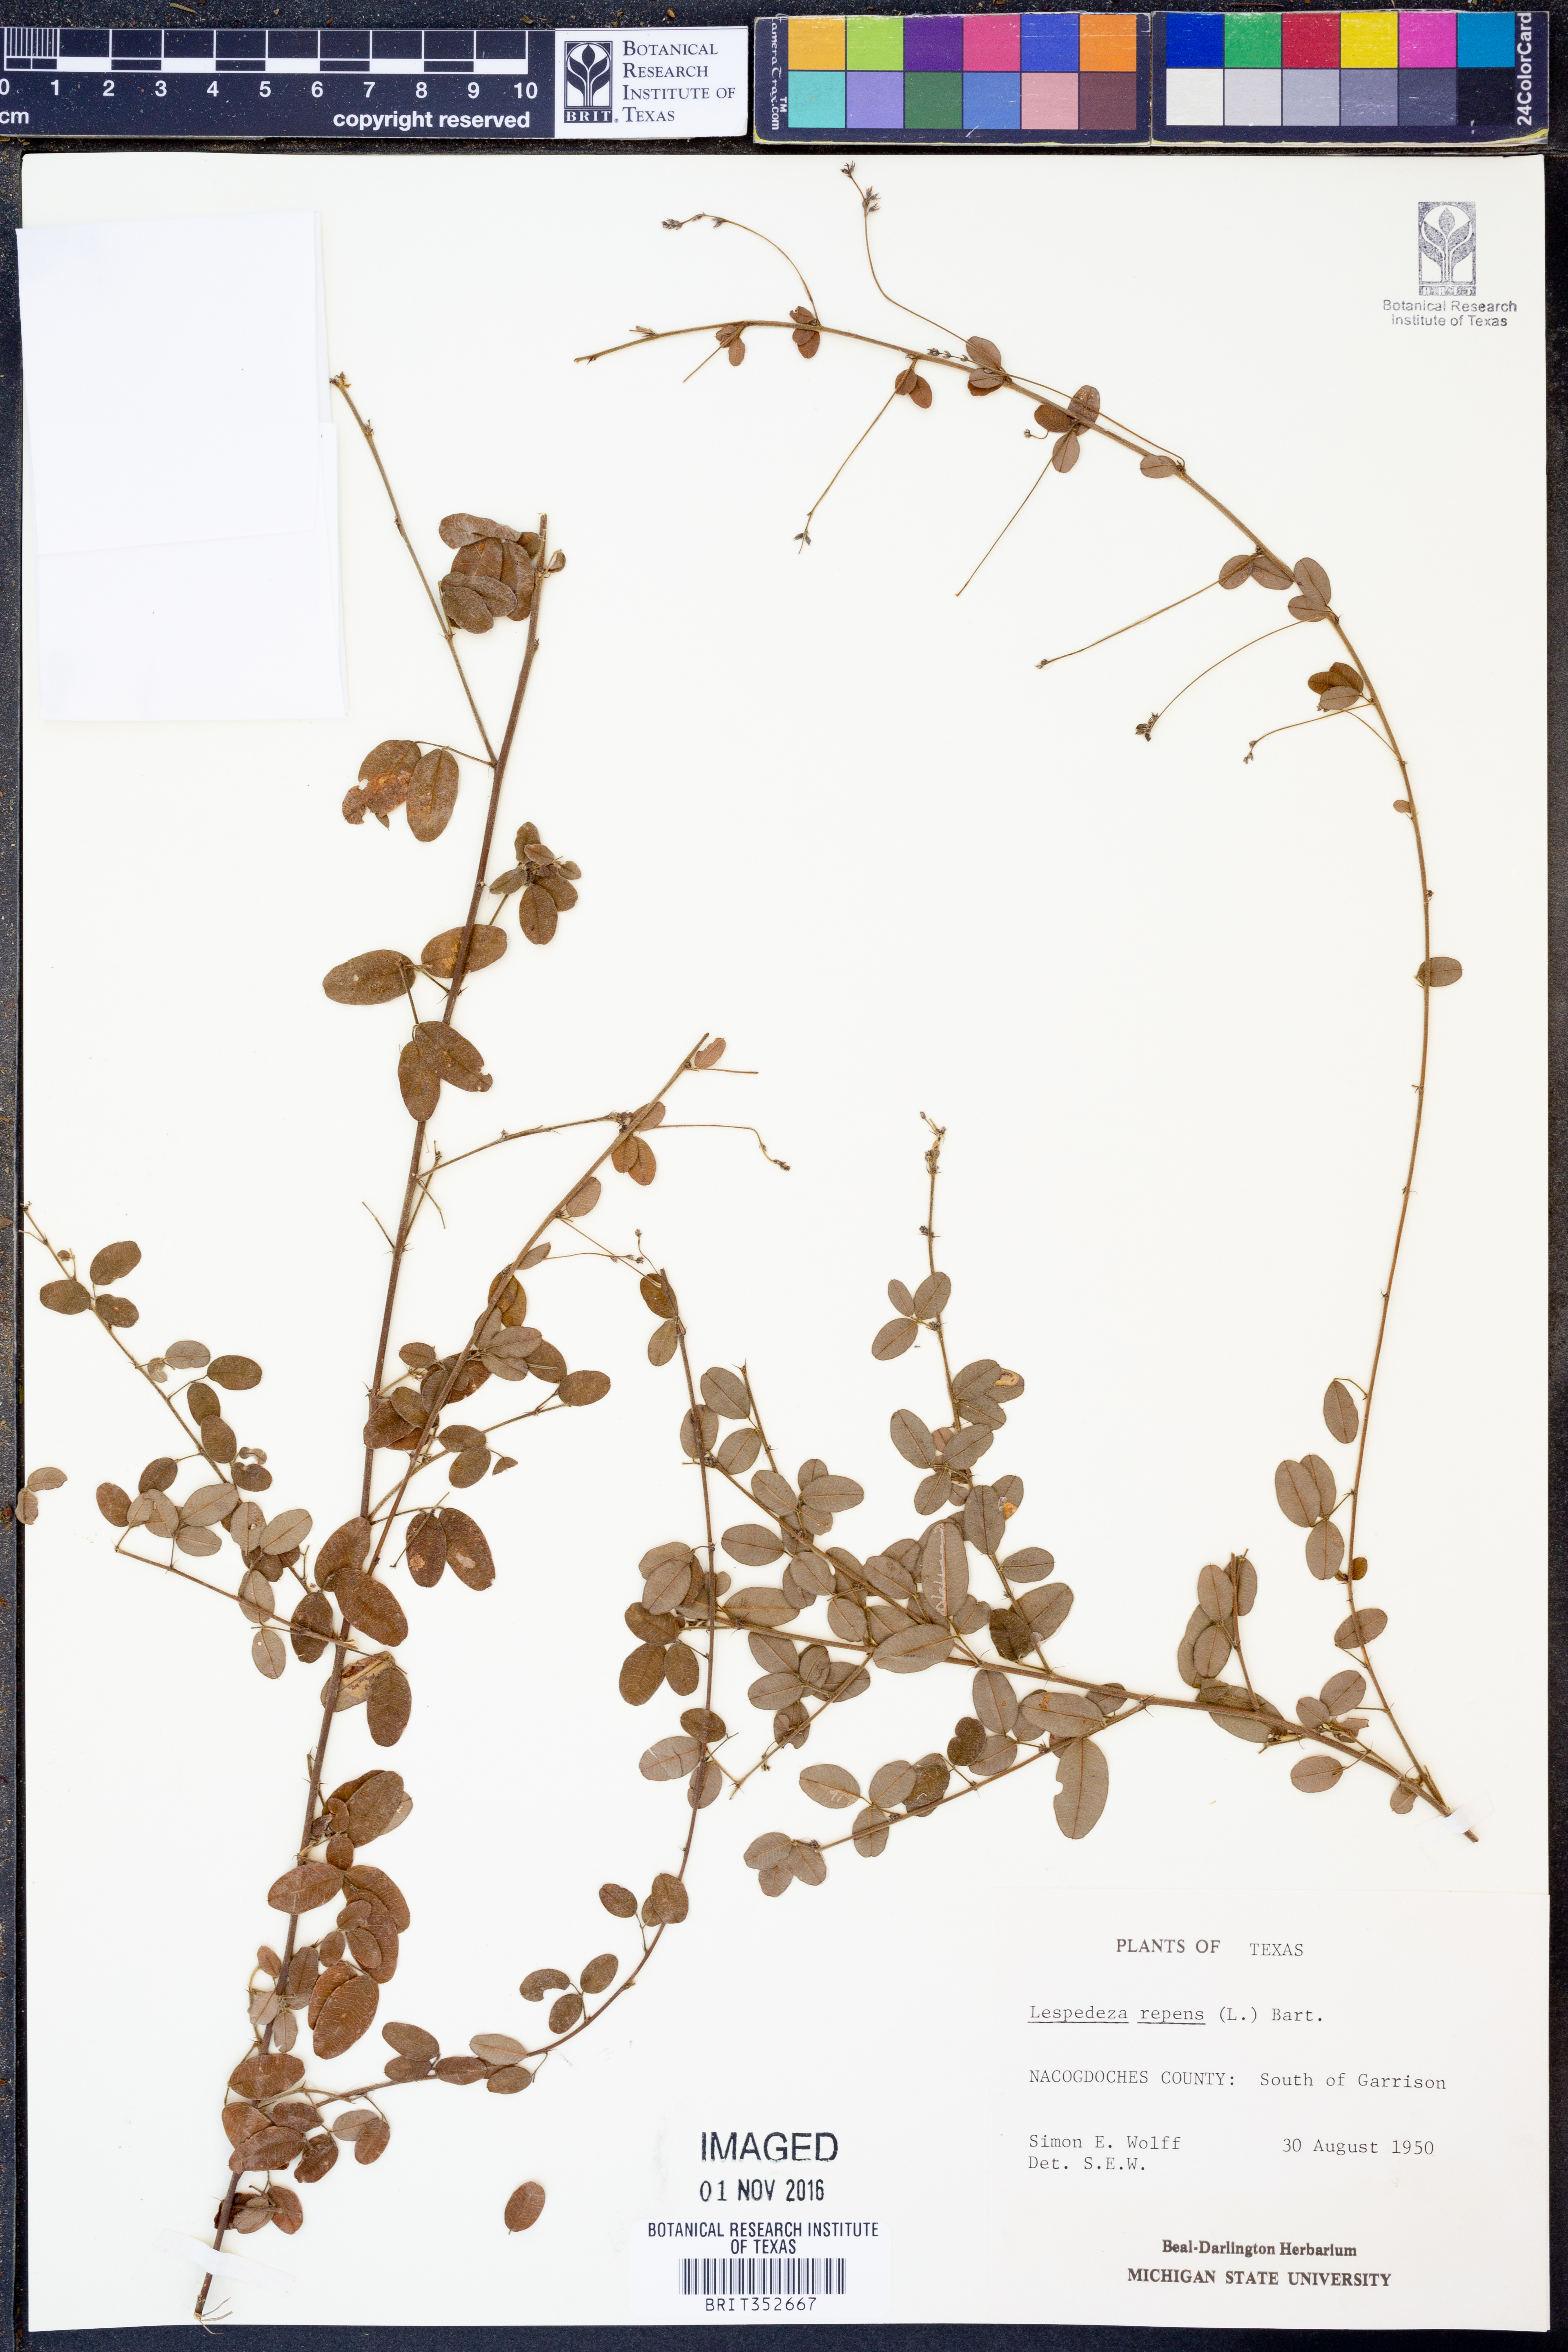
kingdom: Plantae
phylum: Tracheophyta
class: Magnoliopsida
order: Fabales
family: Fabaceae
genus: Lespedeza
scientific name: Lespedeza repens
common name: Creeping bush-clover
